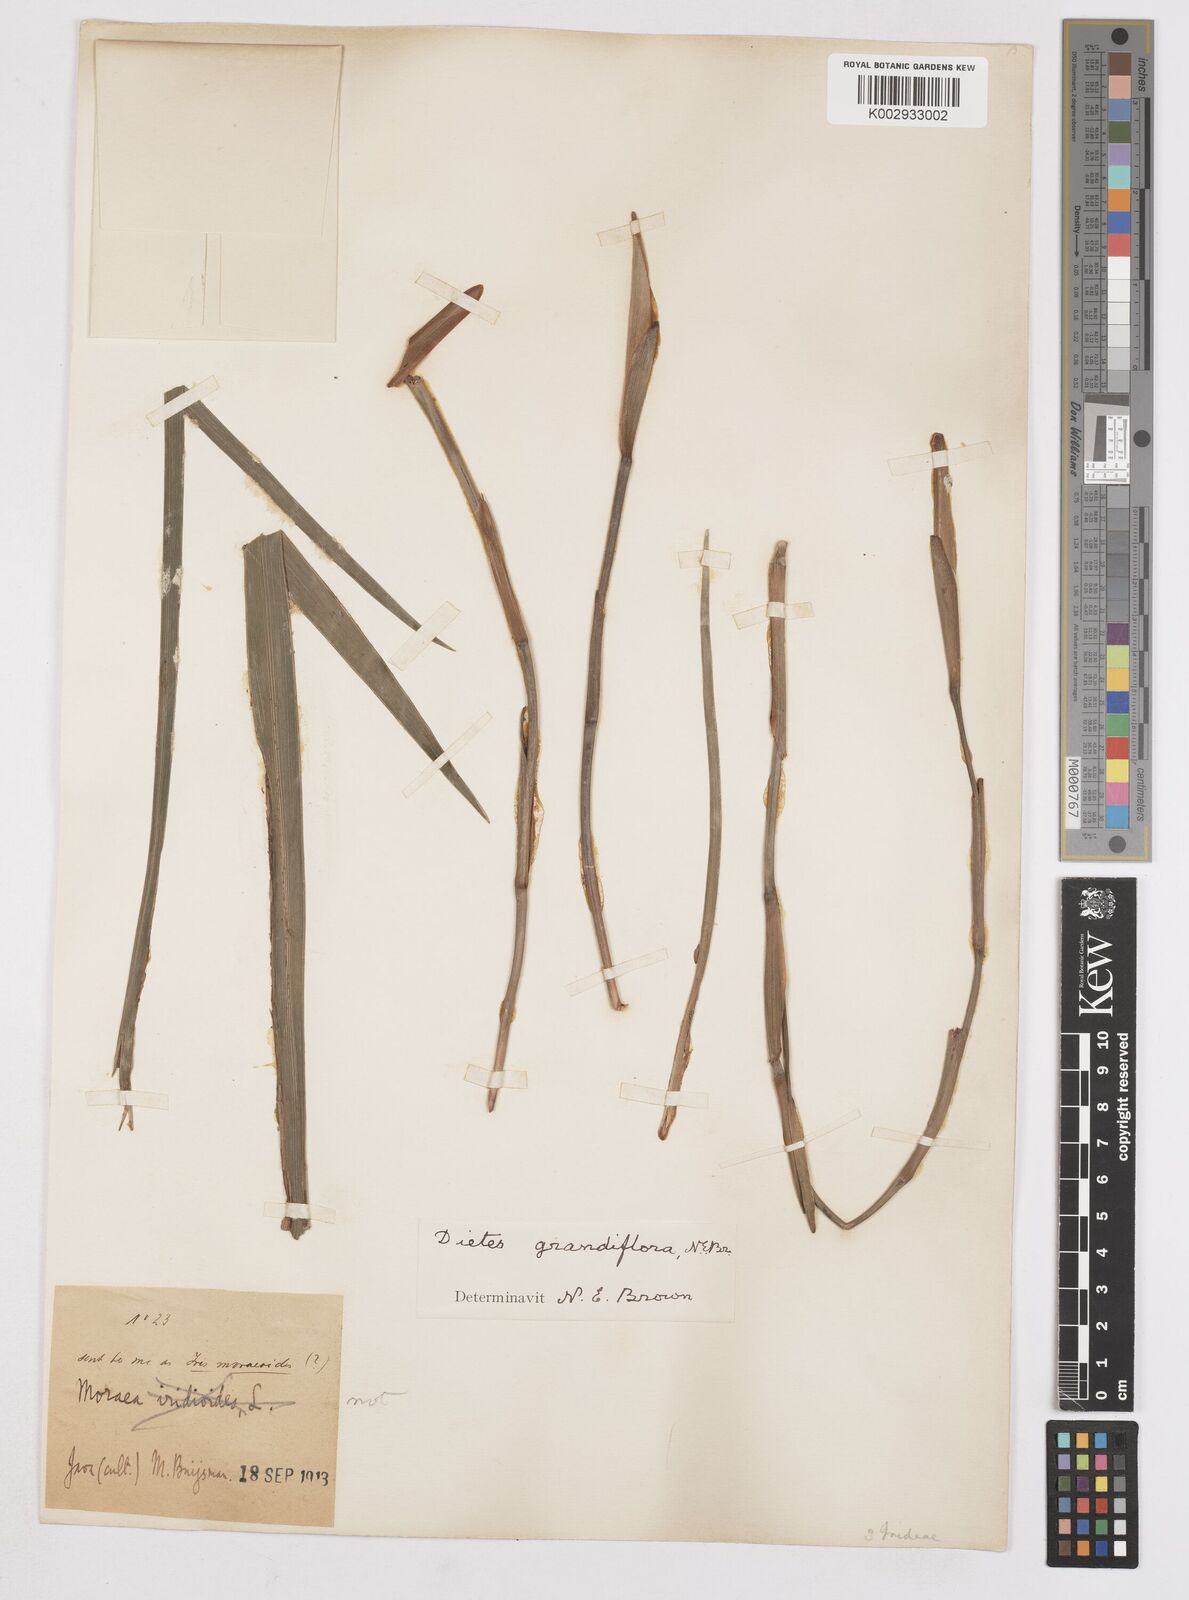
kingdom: Plantae
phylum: Tracheophyta
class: Liliopsida
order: Asparagales
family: Iridaceae
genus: Dietes
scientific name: Dietes grandiflora
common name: Wild iris
